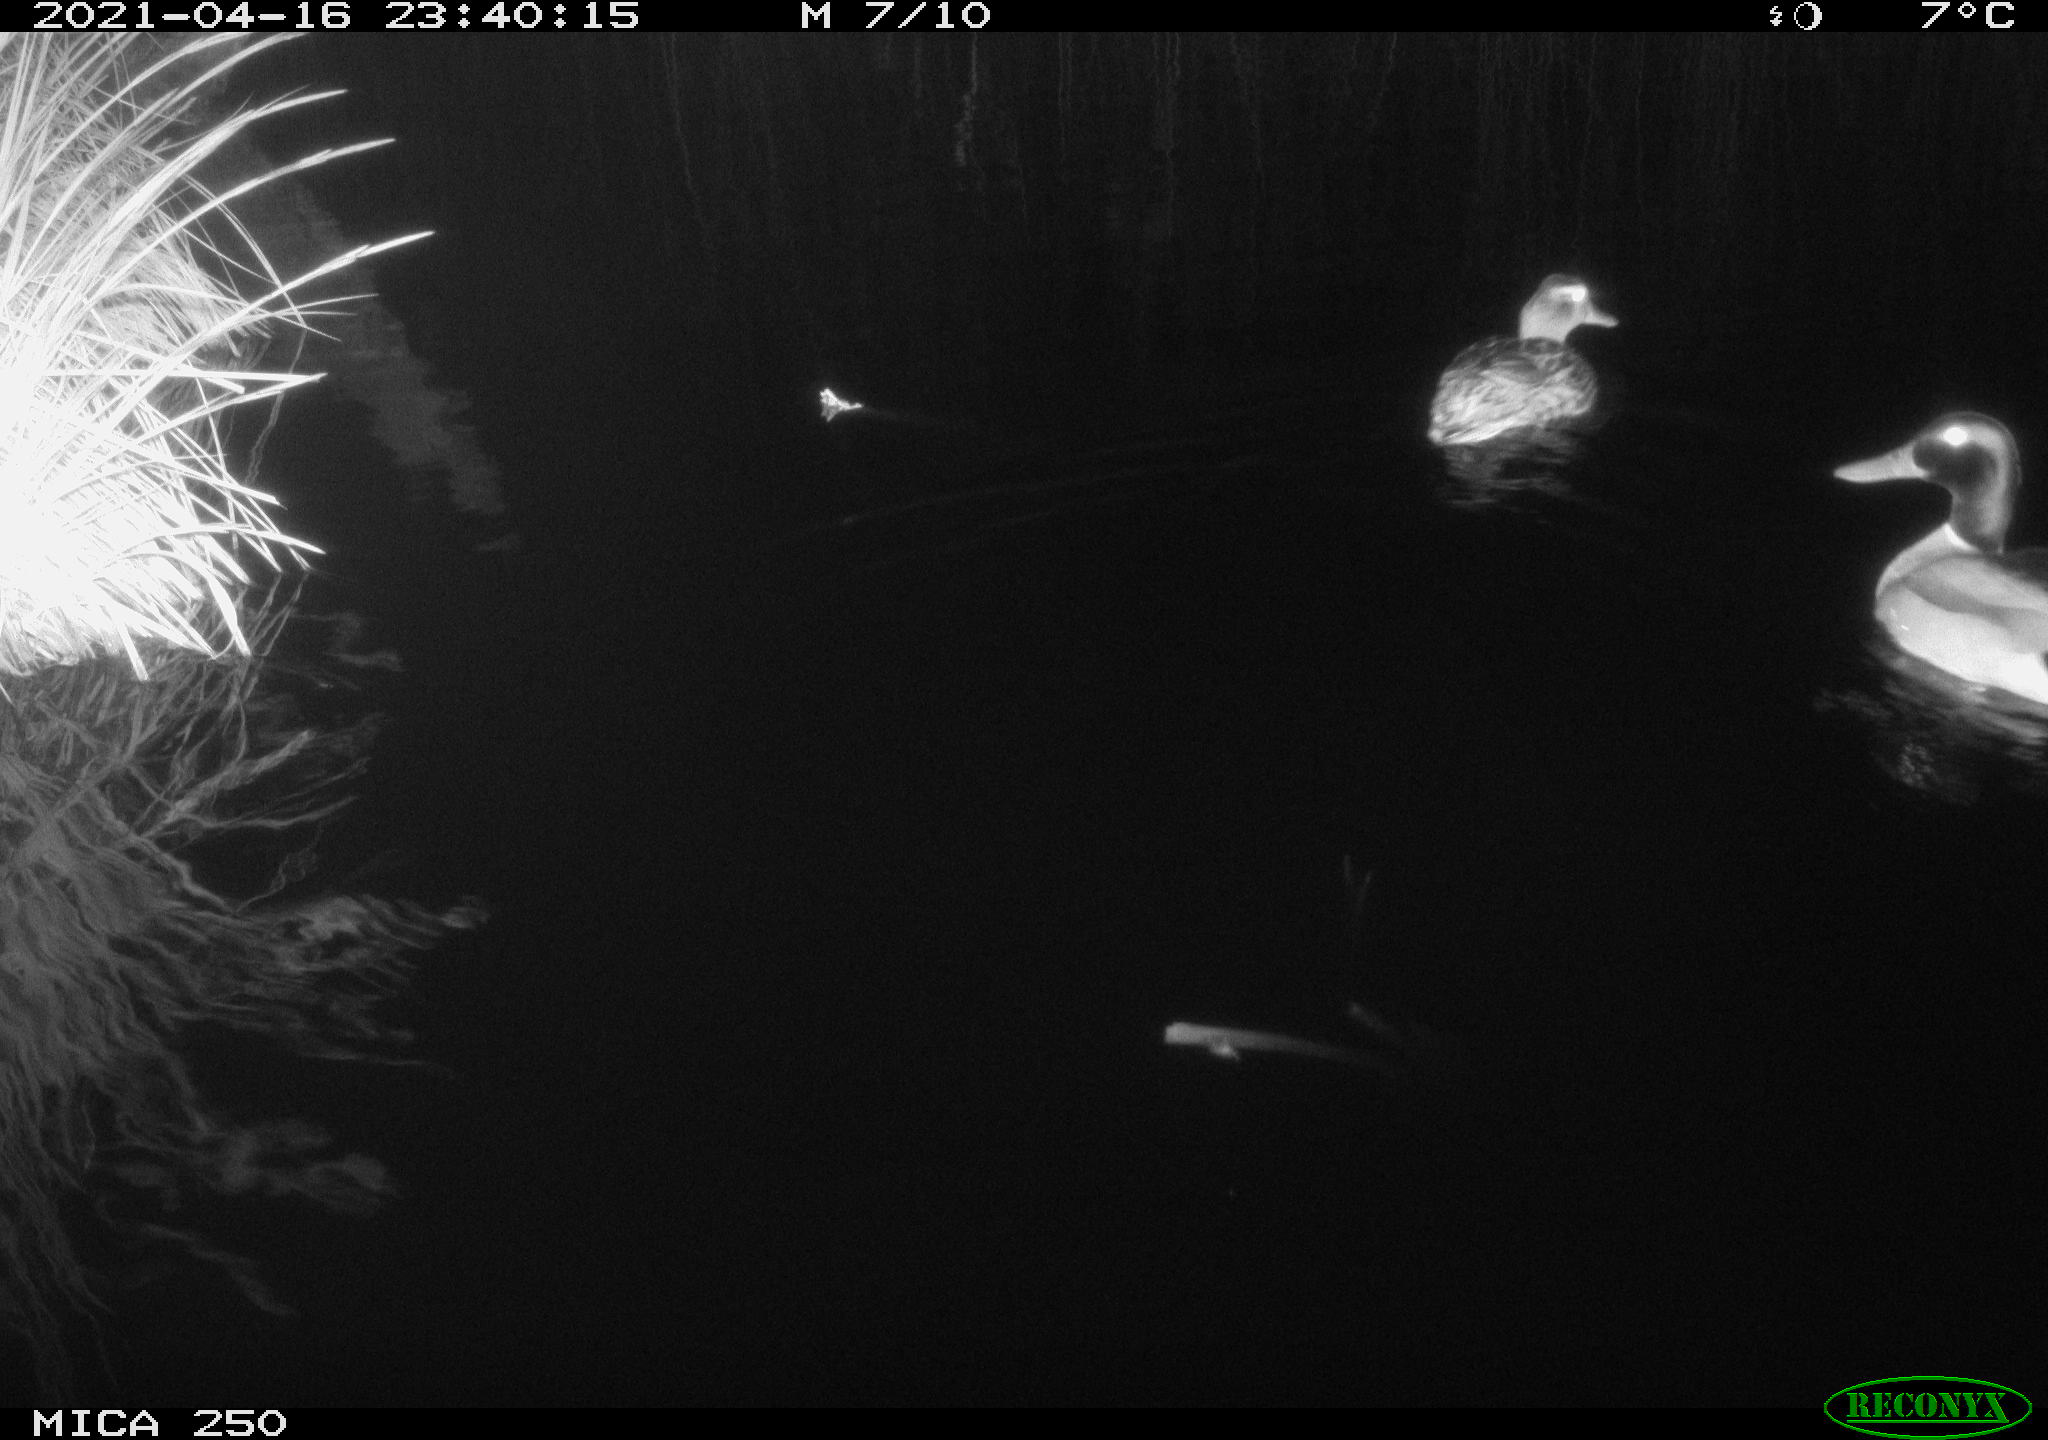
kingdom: Animalia
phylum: Chordata
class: Aves
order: Anseriformes
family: Anatidae
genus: Anas
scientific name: Anas platyrhynchos
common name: Mallard
